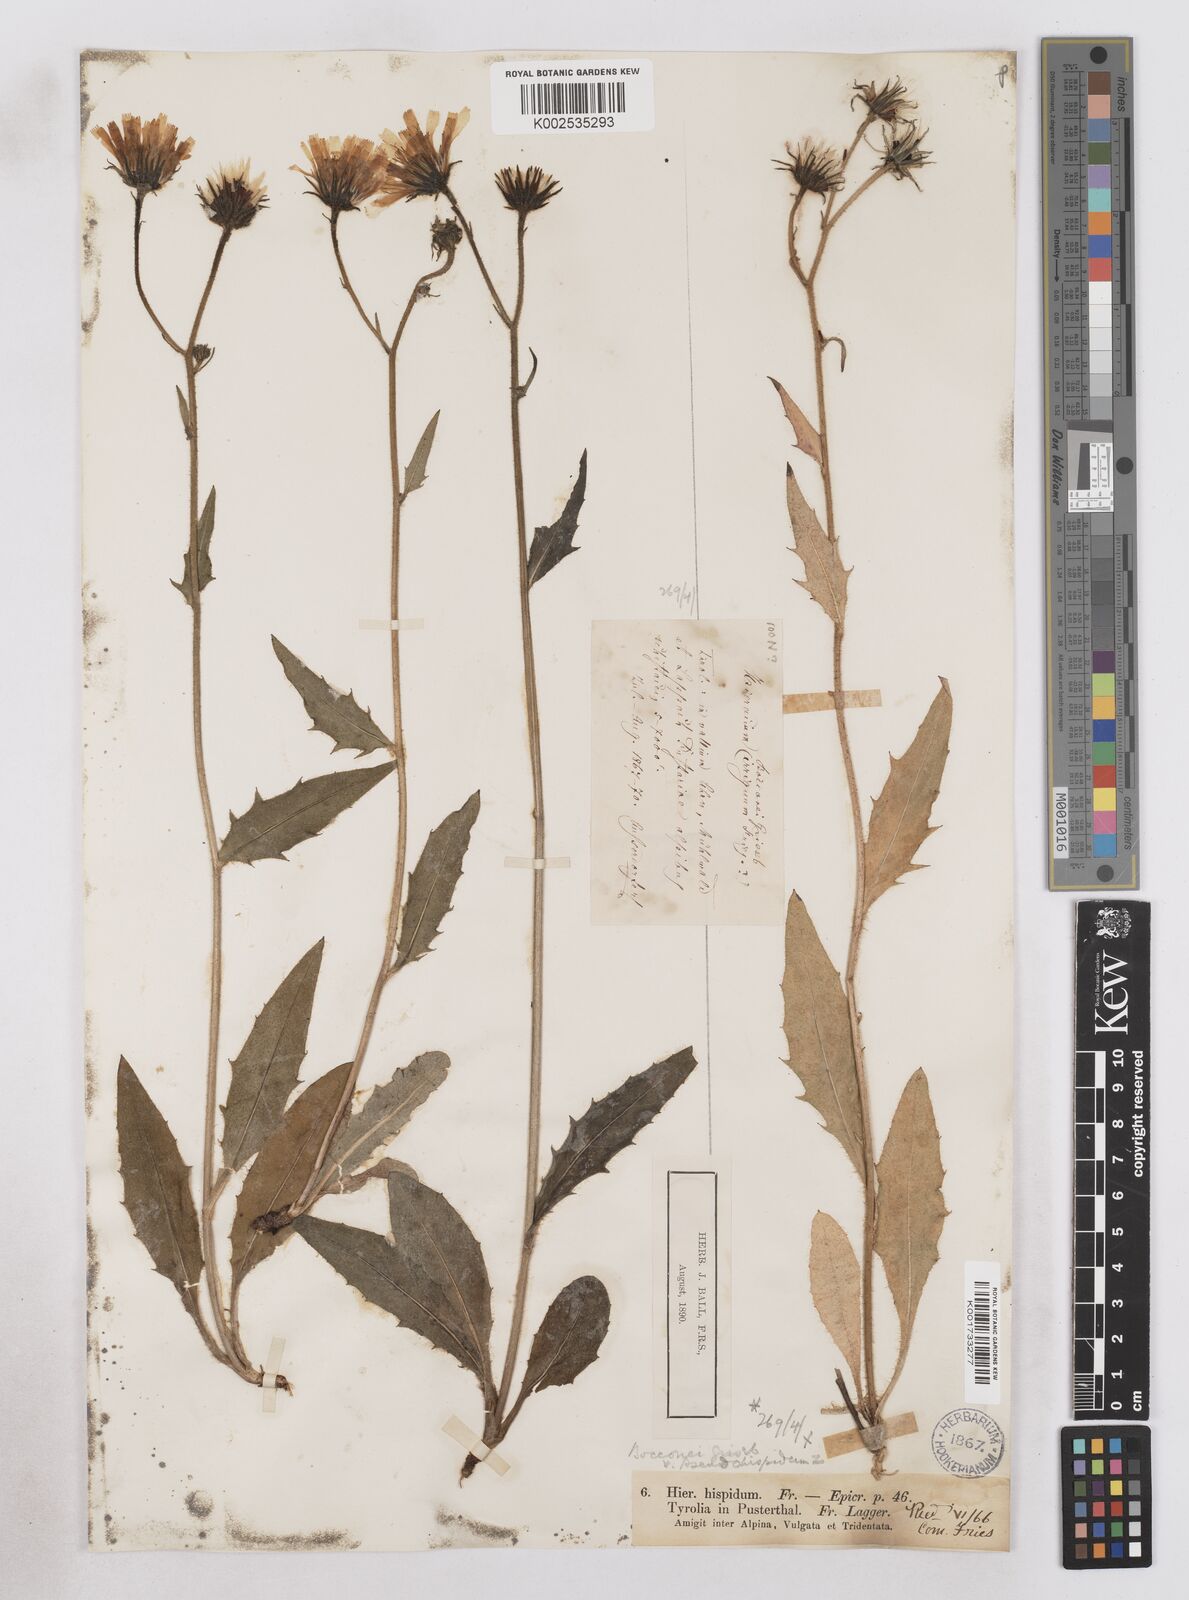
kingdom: Plantae
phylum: Tracheophyta
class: Magnoliopsida
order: Asterales
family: Asteraceae
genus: Hieracium
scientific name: Hieracium bocconei
